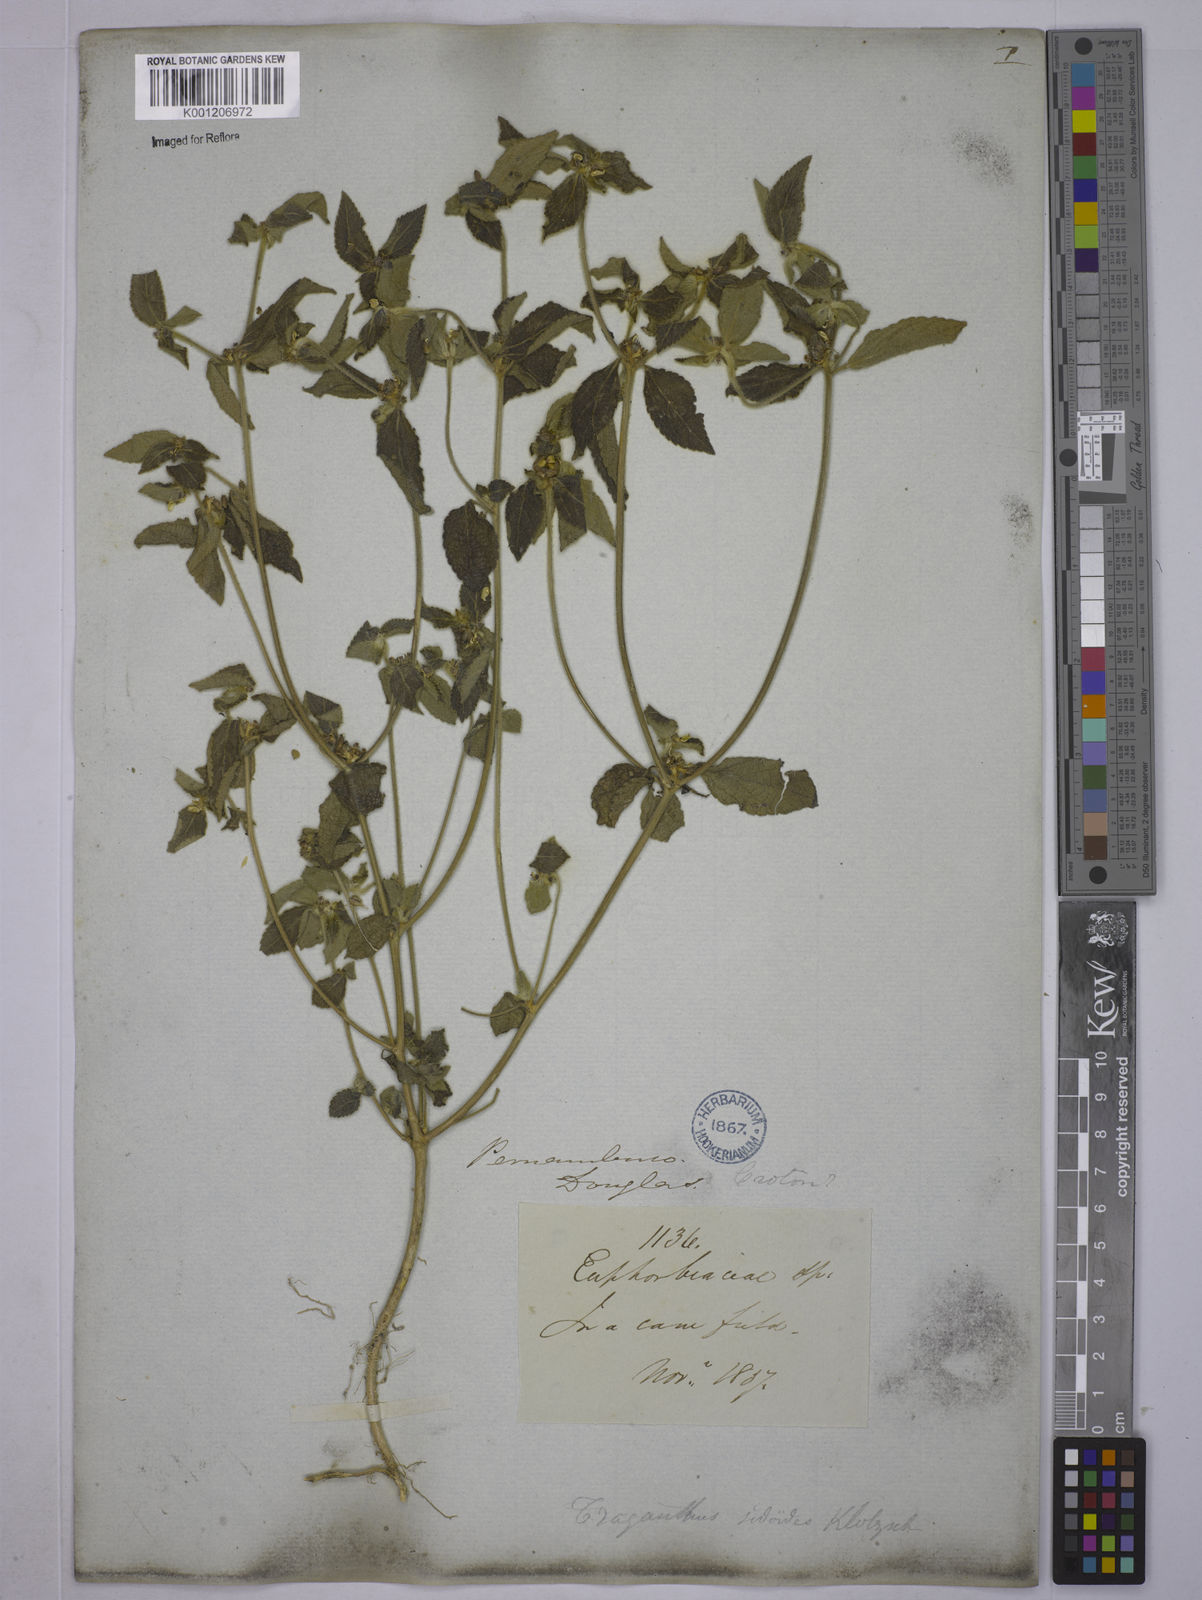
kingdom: Plantae
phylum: Tracheophyta
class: Magnoliopsida
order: Malpighiales
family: Euphorbiaceae
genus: Bernardia
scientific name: Bernardia
